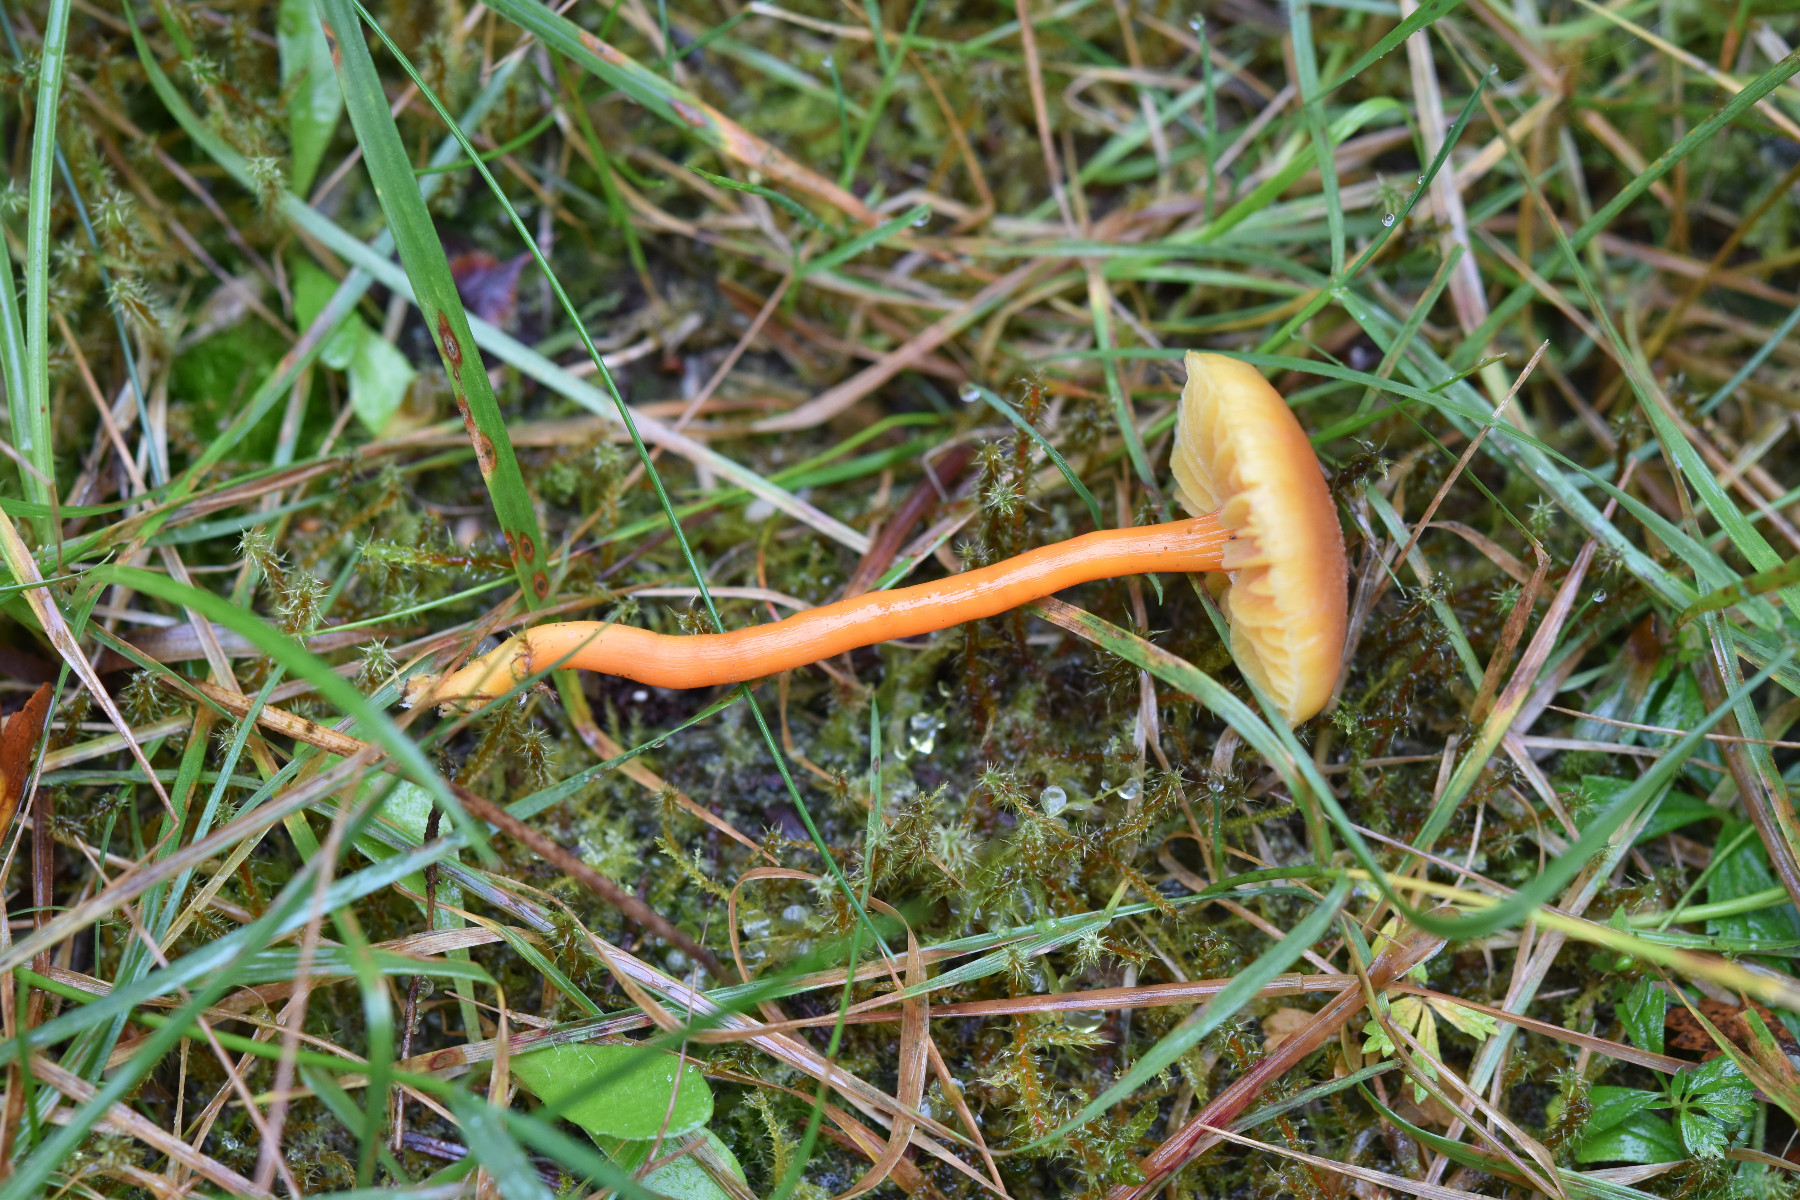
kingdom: Fungi
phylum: Basidiomycota
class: Agaricomycetes
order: Agaricales
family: Hygrophoraceae
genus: Hygrocybe
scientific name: Hygrocybe miniata
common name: mønje-vokshat
